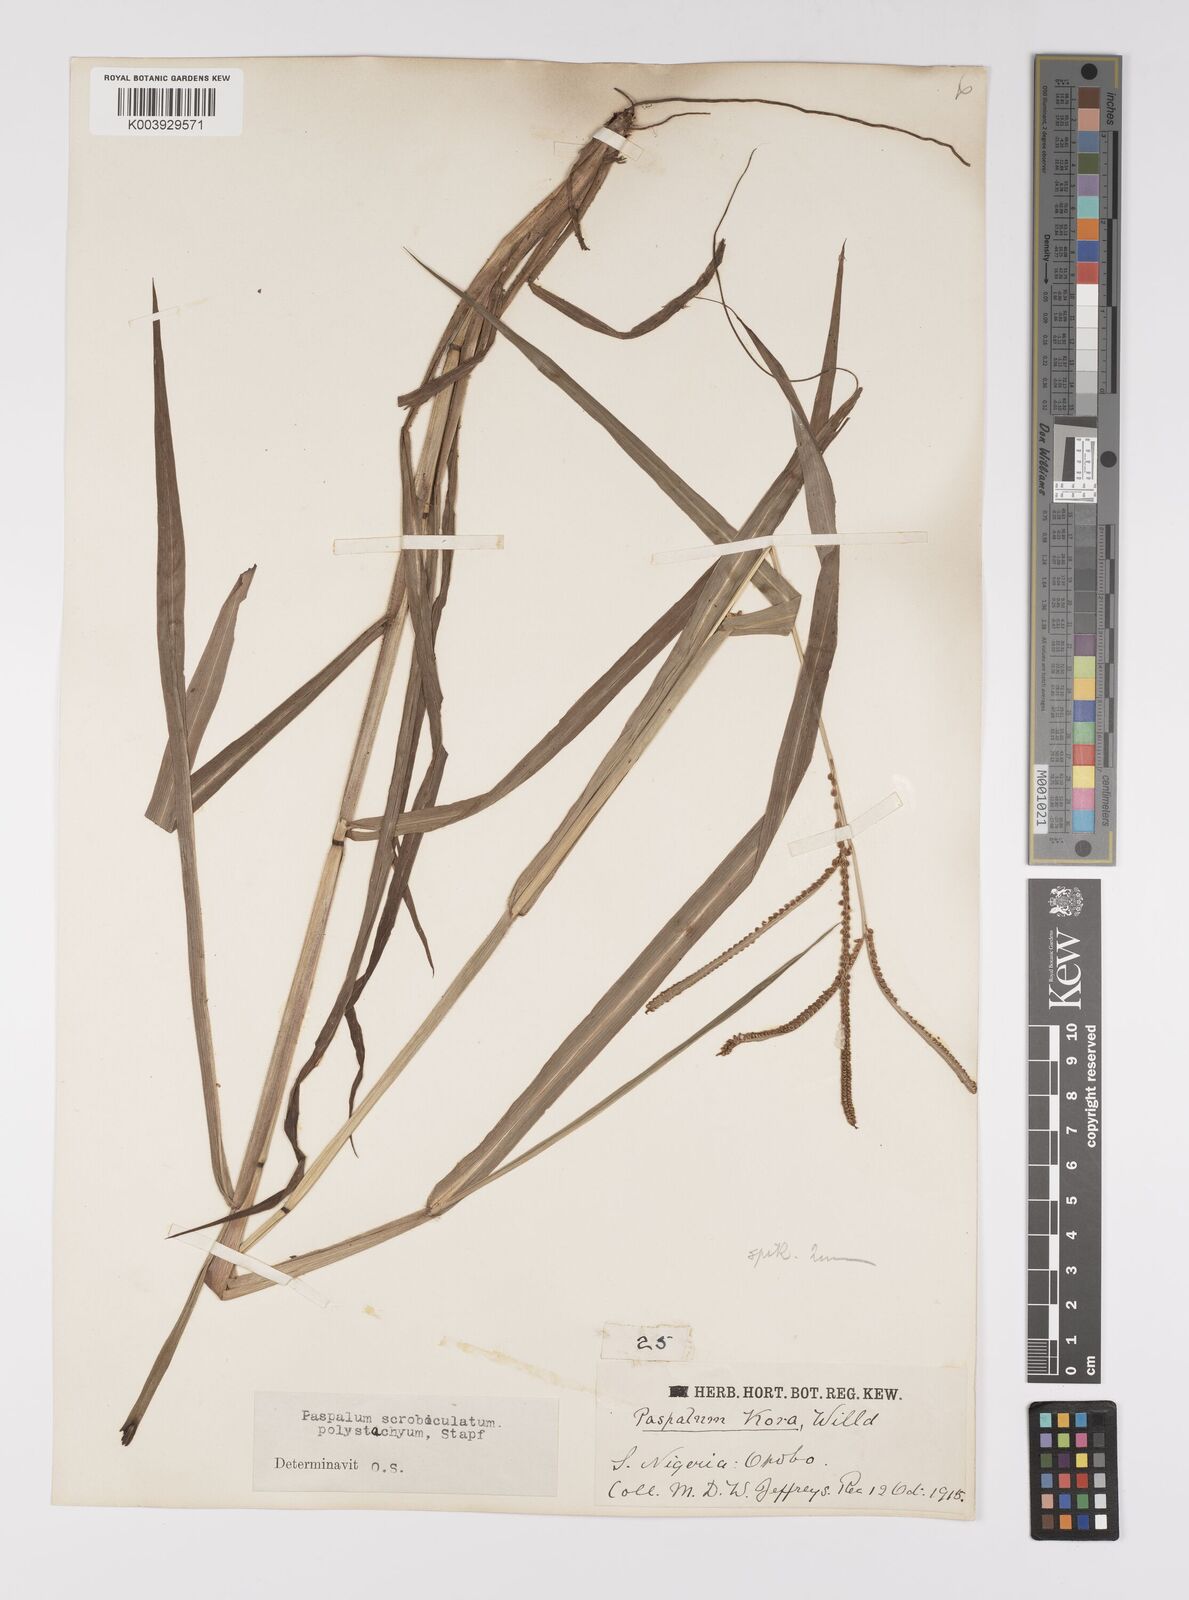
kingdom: Plantae
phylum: Tracheophyta
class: Liliopsida
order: Poales
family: Poaceae
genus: Paspalum
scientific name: Paspalum scrobiculatum
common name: Kodo millet
